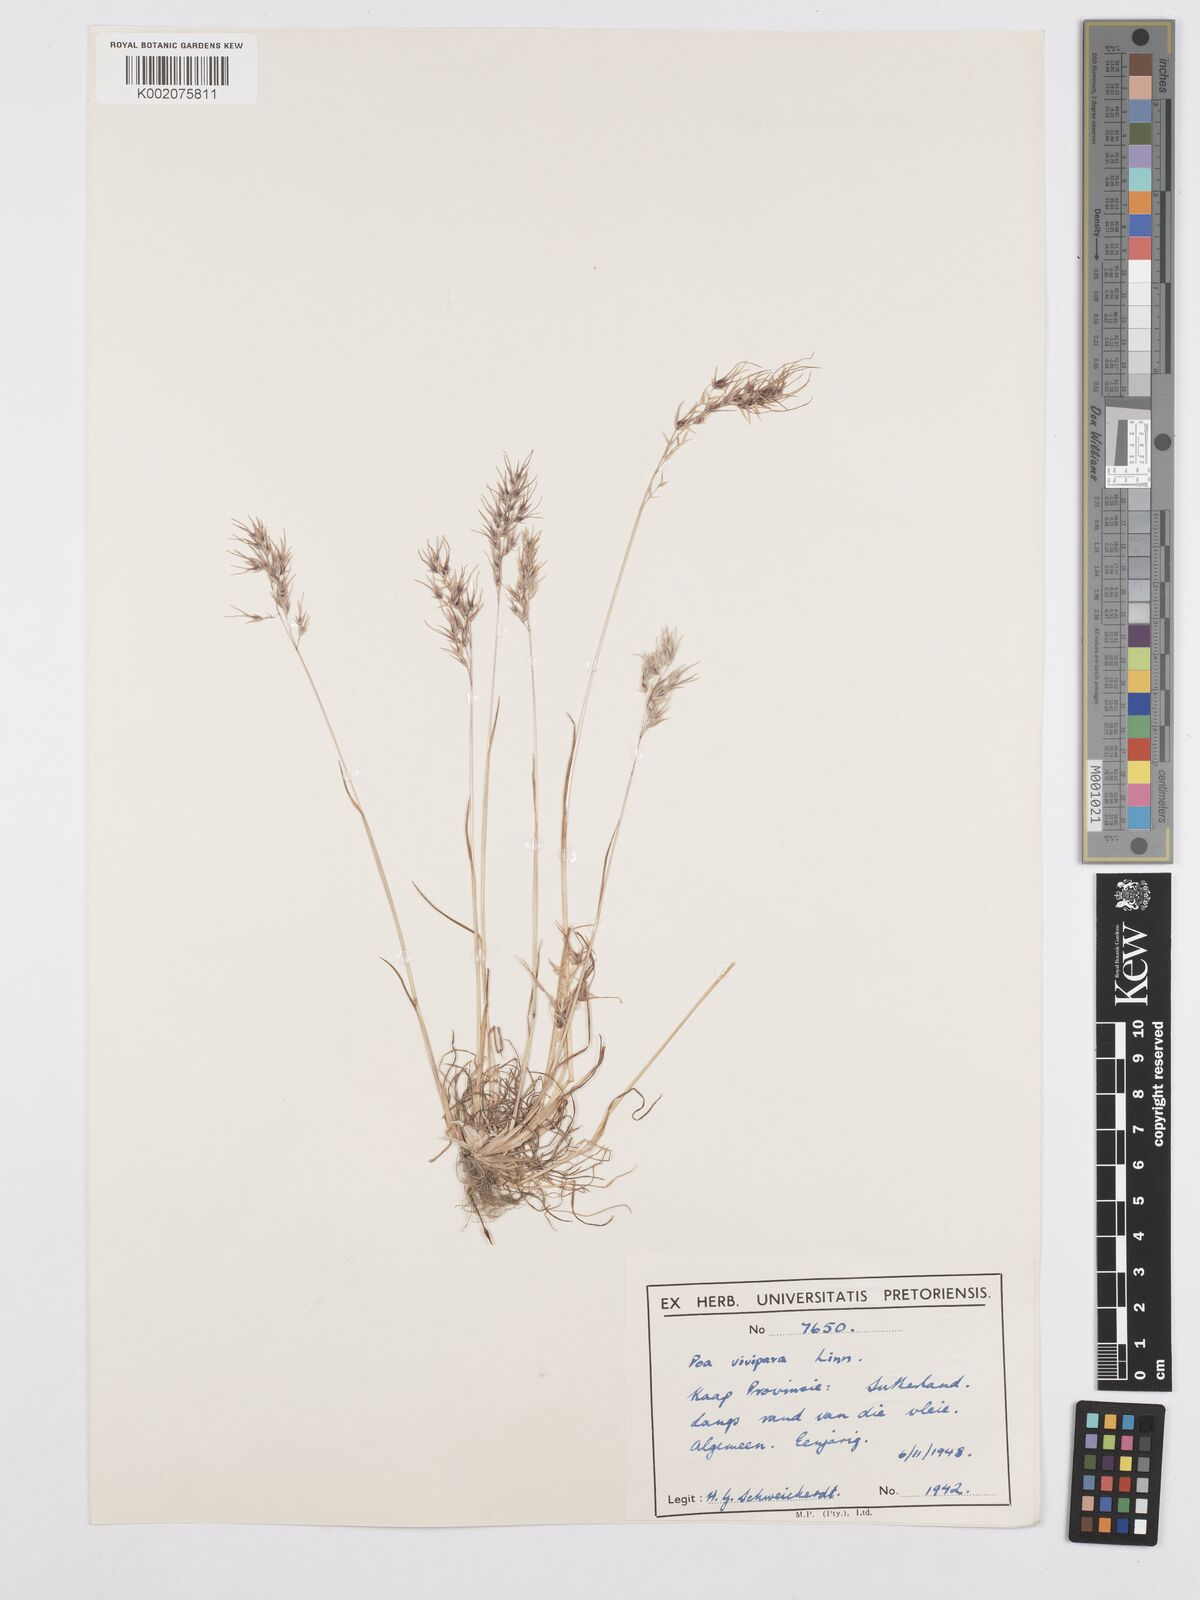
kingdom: Plantae
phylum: Tracheophyta
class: Liliopsida
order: Poales
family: Poaceae
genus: Poa
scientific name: Poa bulbosa
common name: Bulbous bluegrass
